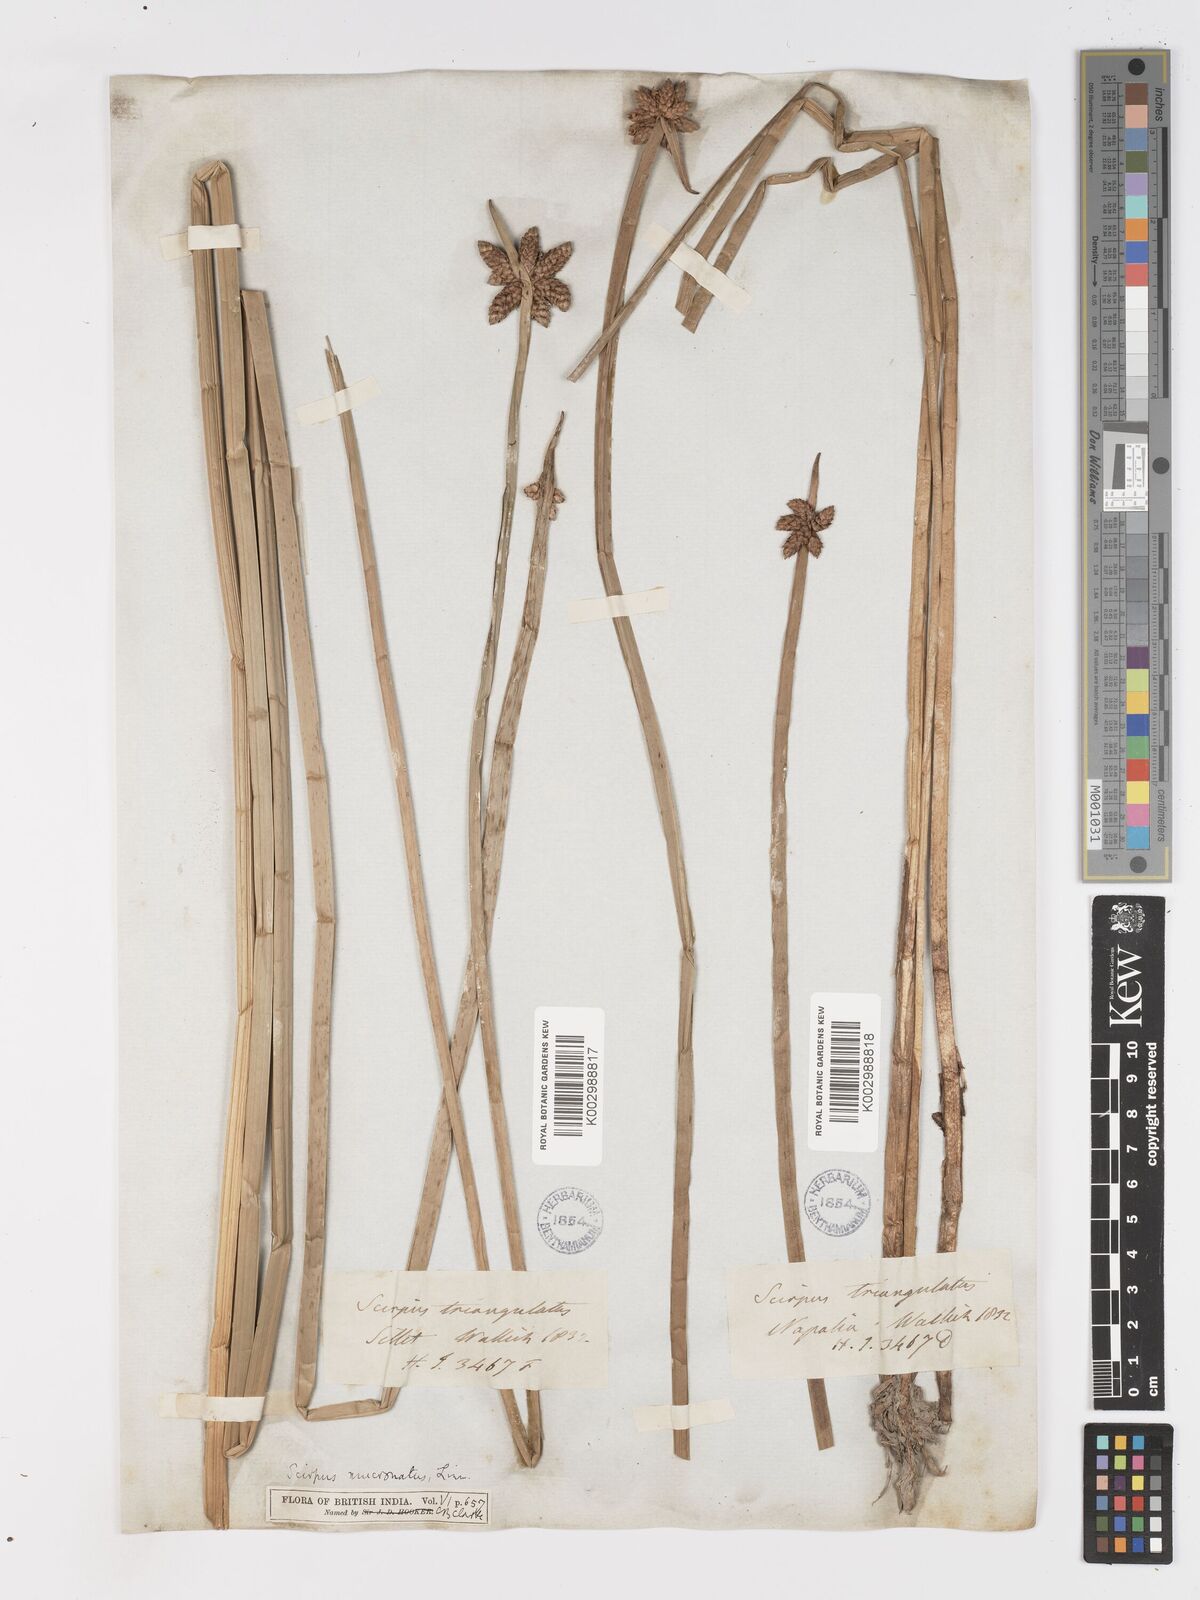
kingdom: Plantae
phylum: Tracheophyta
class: Liliopsida
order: Poales
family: Cyperaceae
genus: Schoenoplectiella
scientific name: Schoenoplectiella mucronata
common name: Bog bulrush
